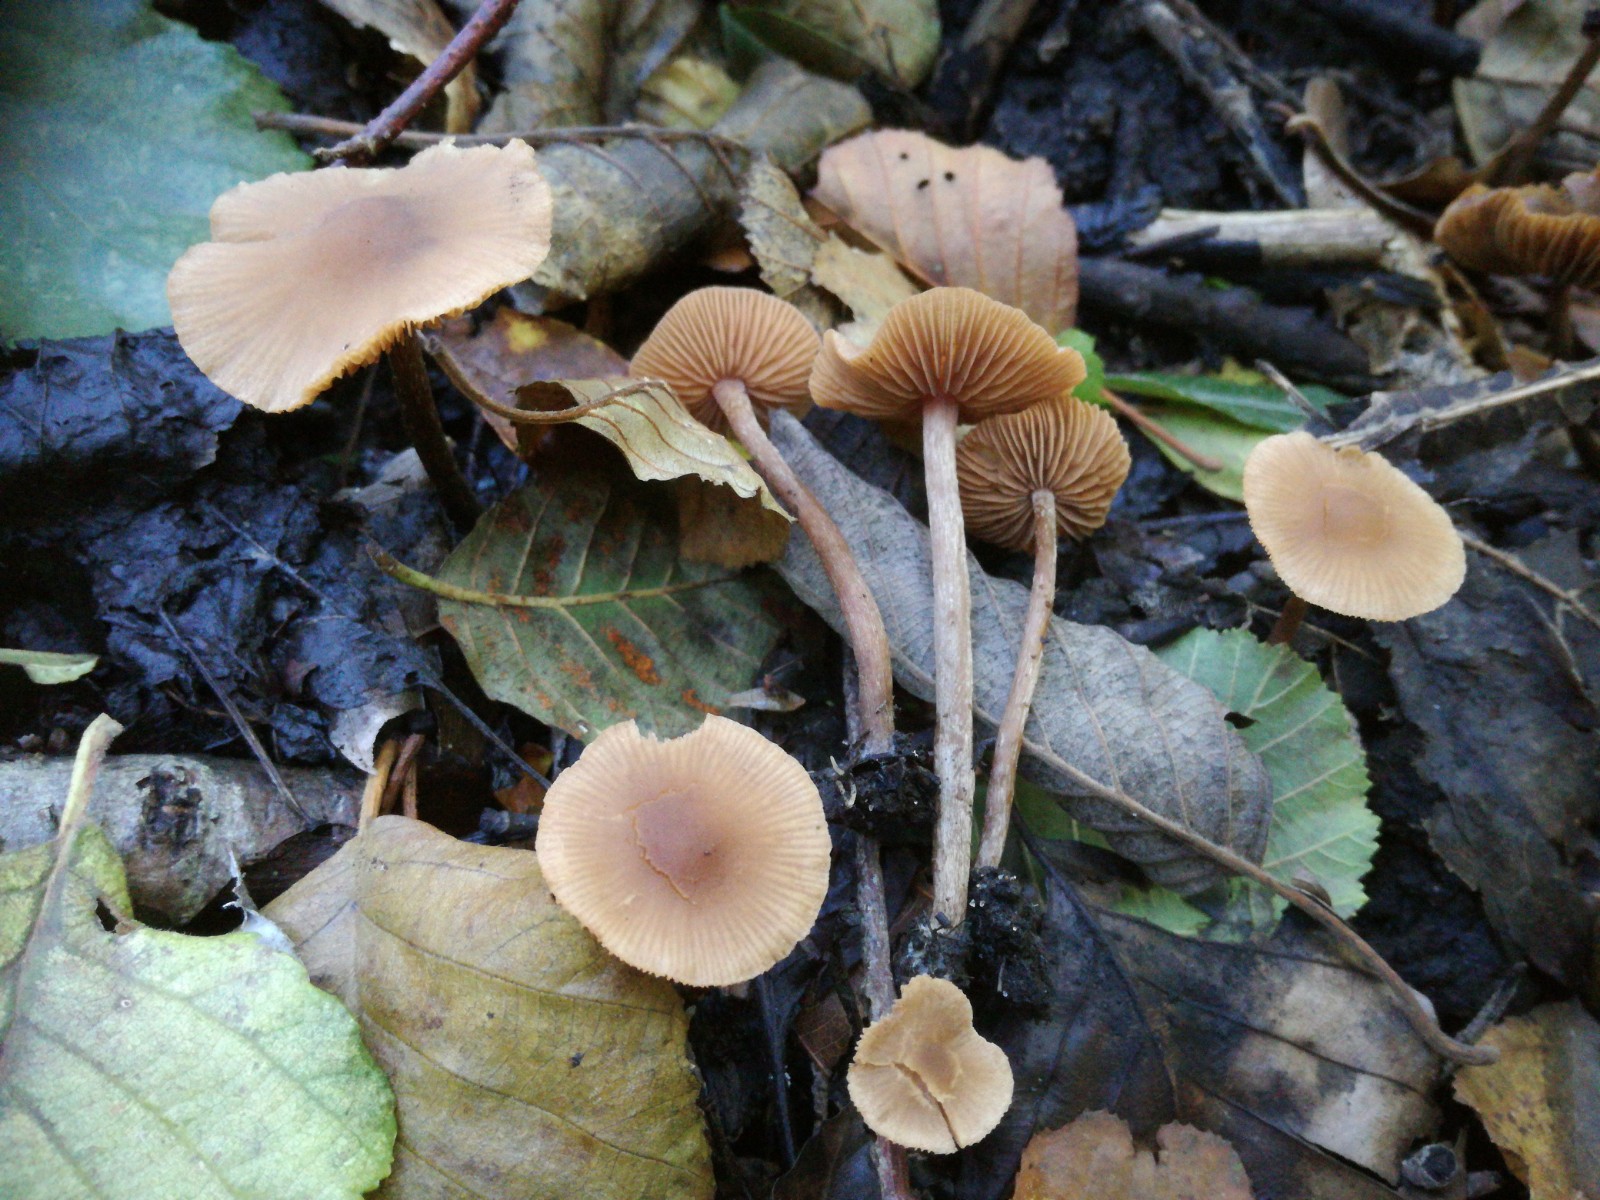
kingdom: Fungi
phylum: Basidiomycota
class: Agaricomycetes
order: Agaricales
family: Hymenogastraceae
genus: Naucoria
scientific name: Naucoria scolecina
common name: mørk elle-knaphat
